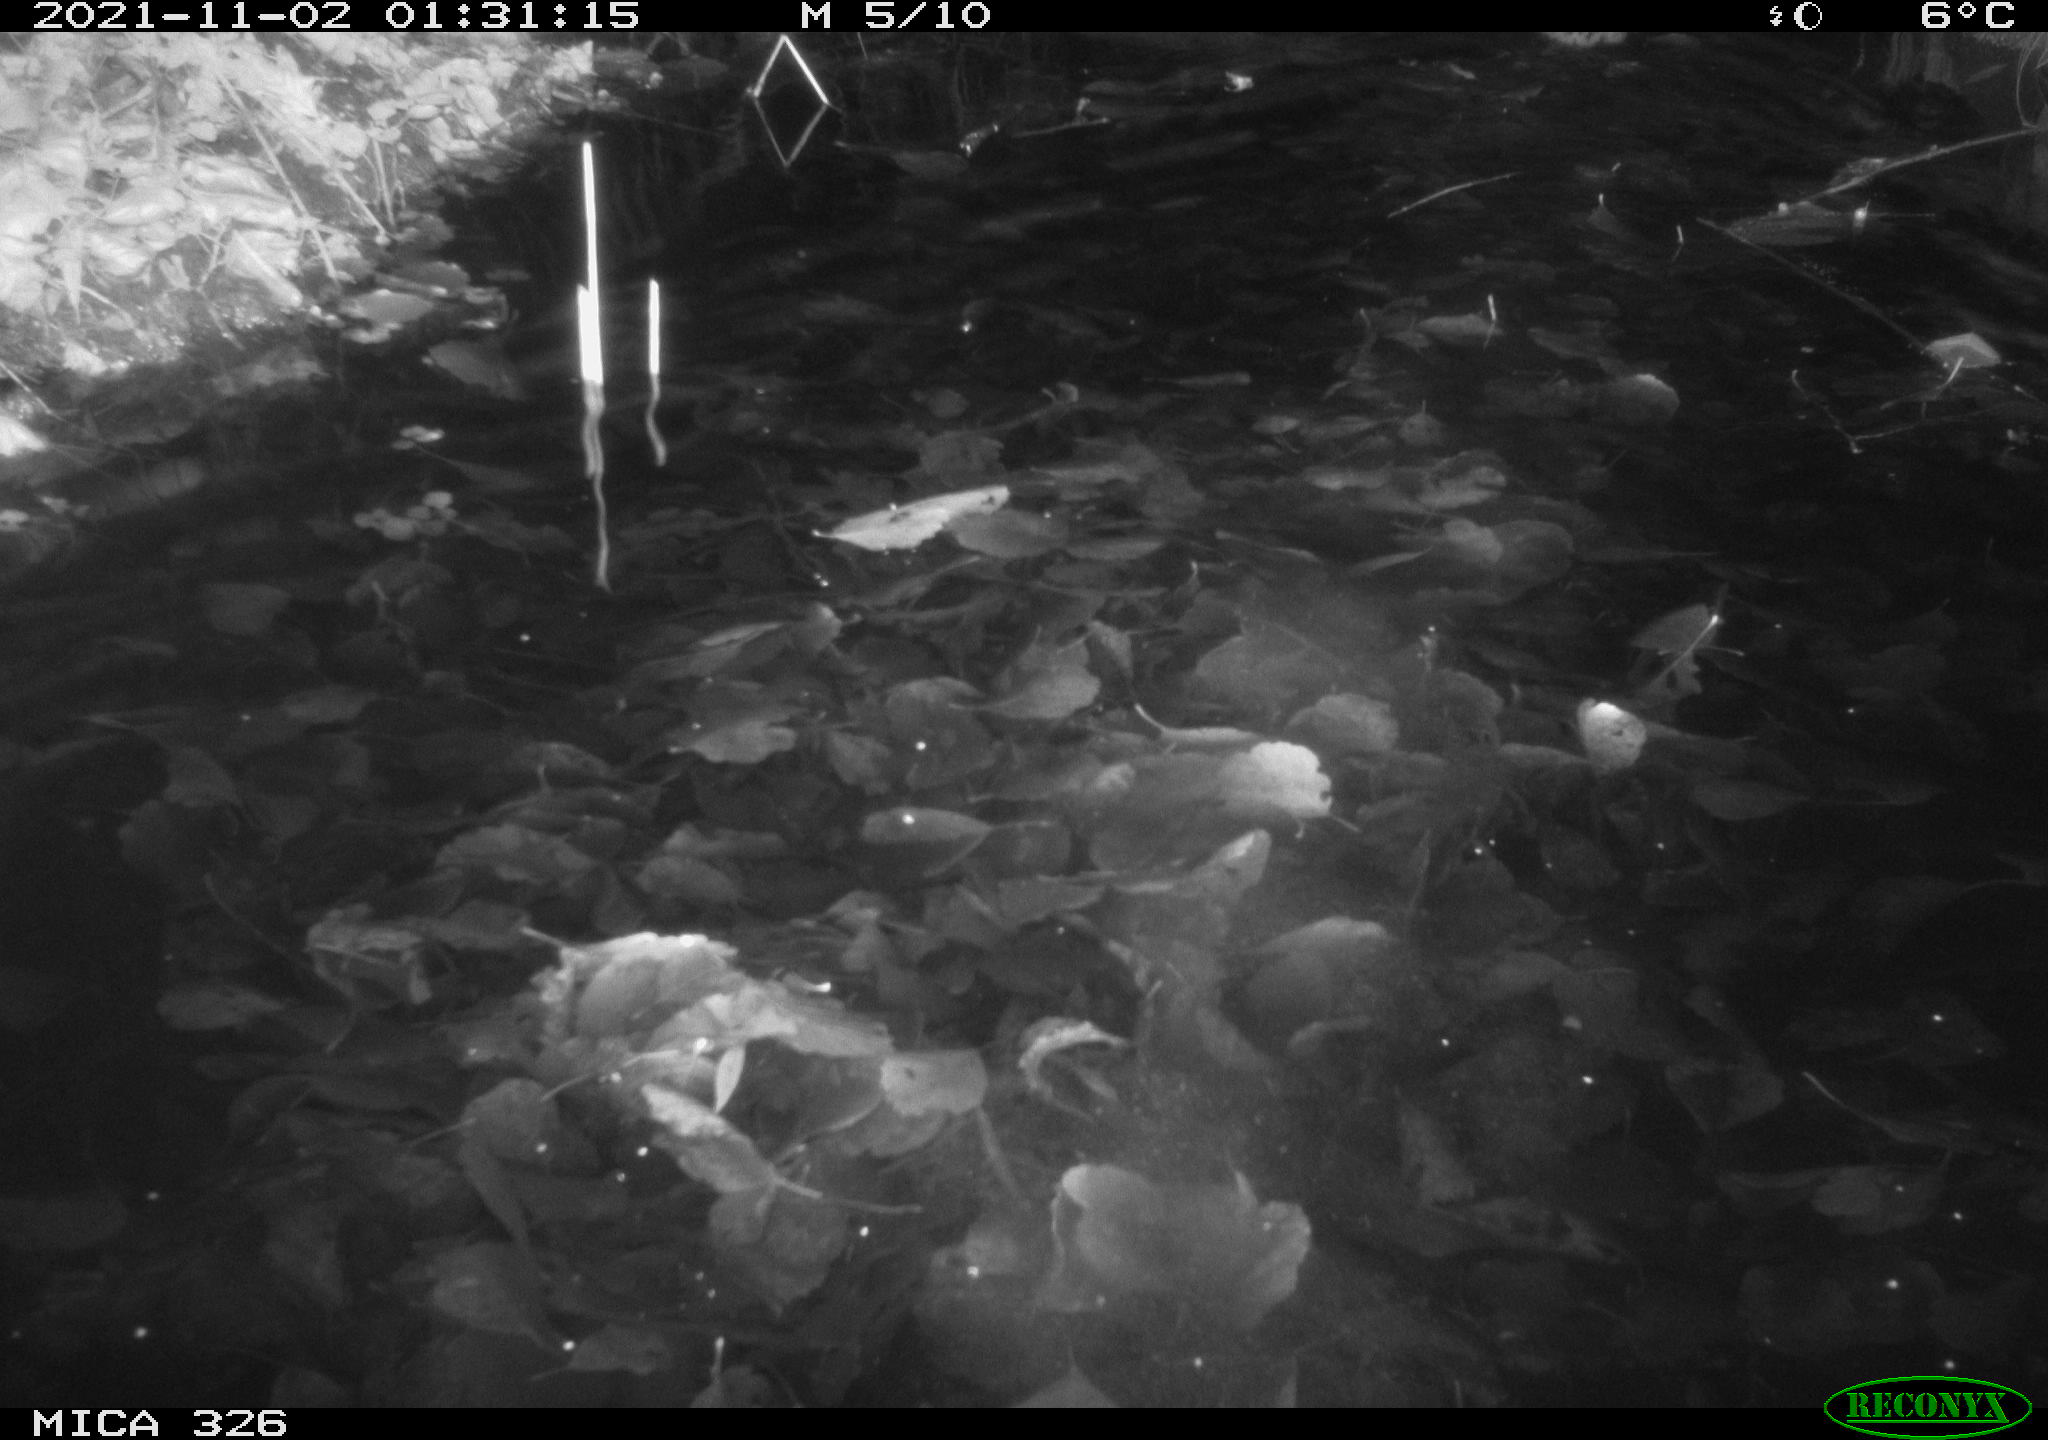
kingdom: Animalia
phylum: Chordata
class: Mammalia
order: Rodentia
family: Cricetidae
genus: Ondatra
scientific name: Ondatra zibethicus
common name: Muskrat
